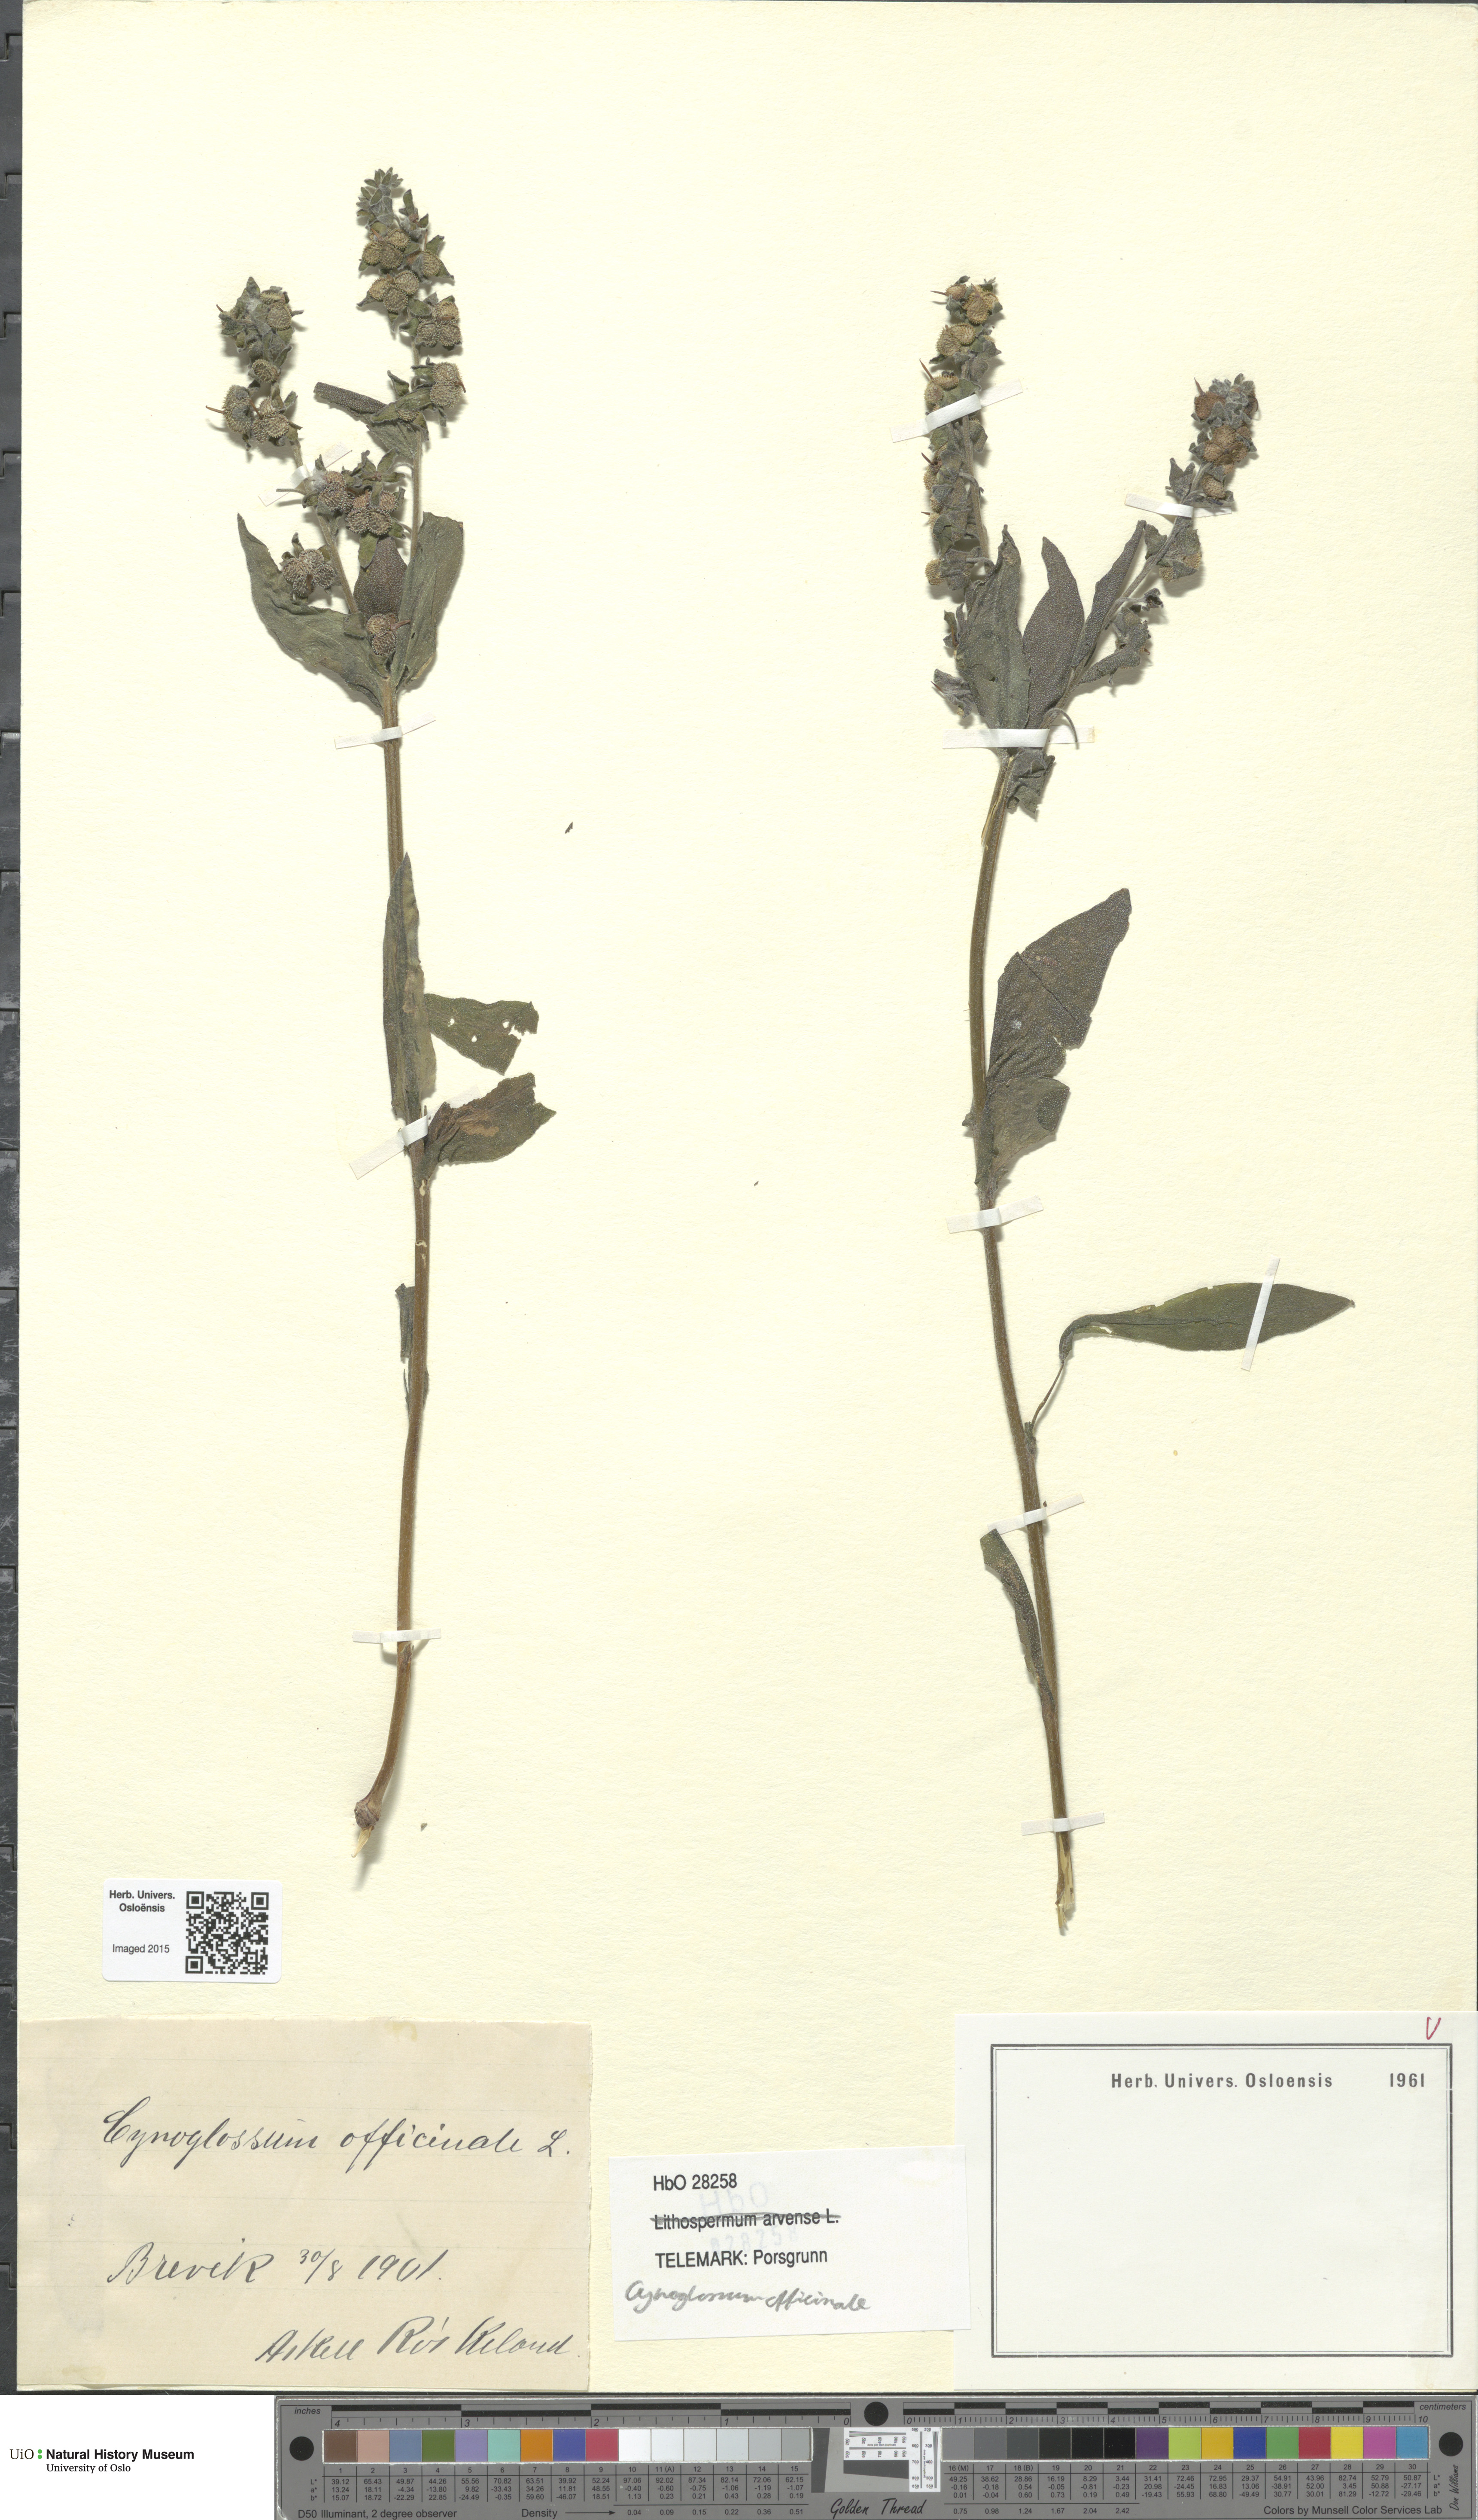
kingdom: Plantae
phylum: Tracheophyta
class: Magnoliopsida
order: Boraginales
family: Boraginaceae
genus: Cynoglossum
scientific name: Cynoglossum officinale
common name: Hound's-tongue
